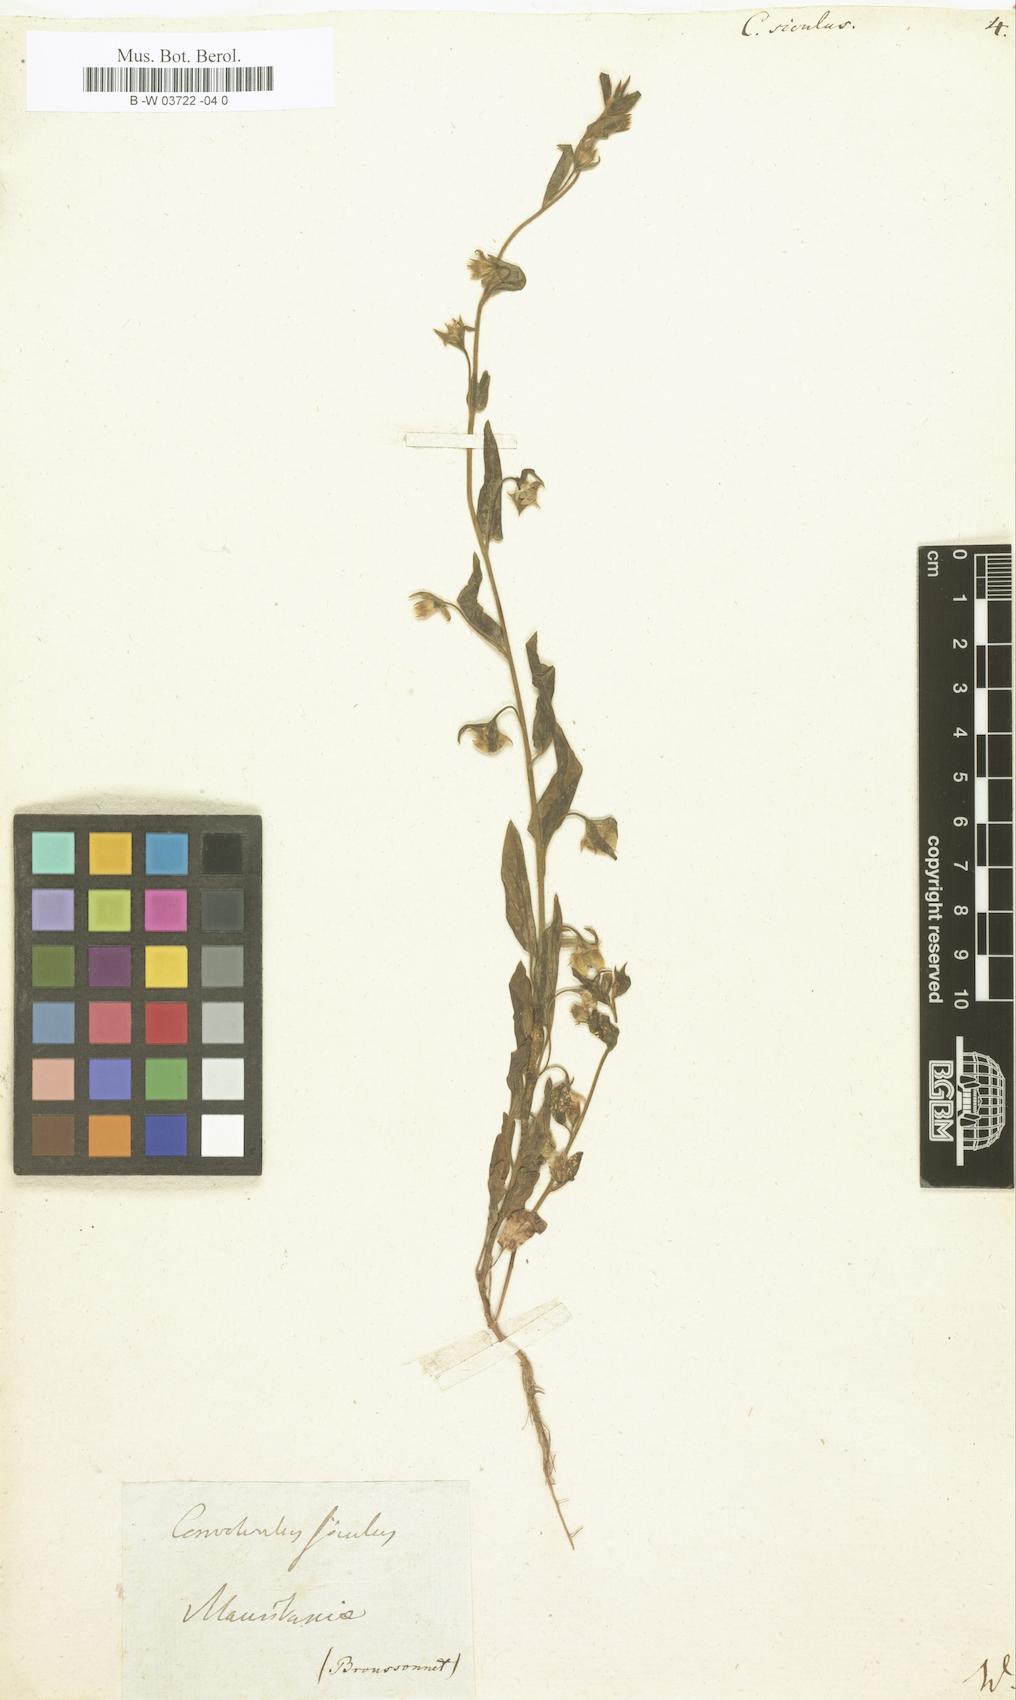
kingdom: Plantae
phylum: Tracheophyta
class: Magnoliopsida
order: Solanales
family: Convolvulaceae
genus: Convolvulus
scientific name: Convolvulus siculus
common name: Small blue-convolvulus
